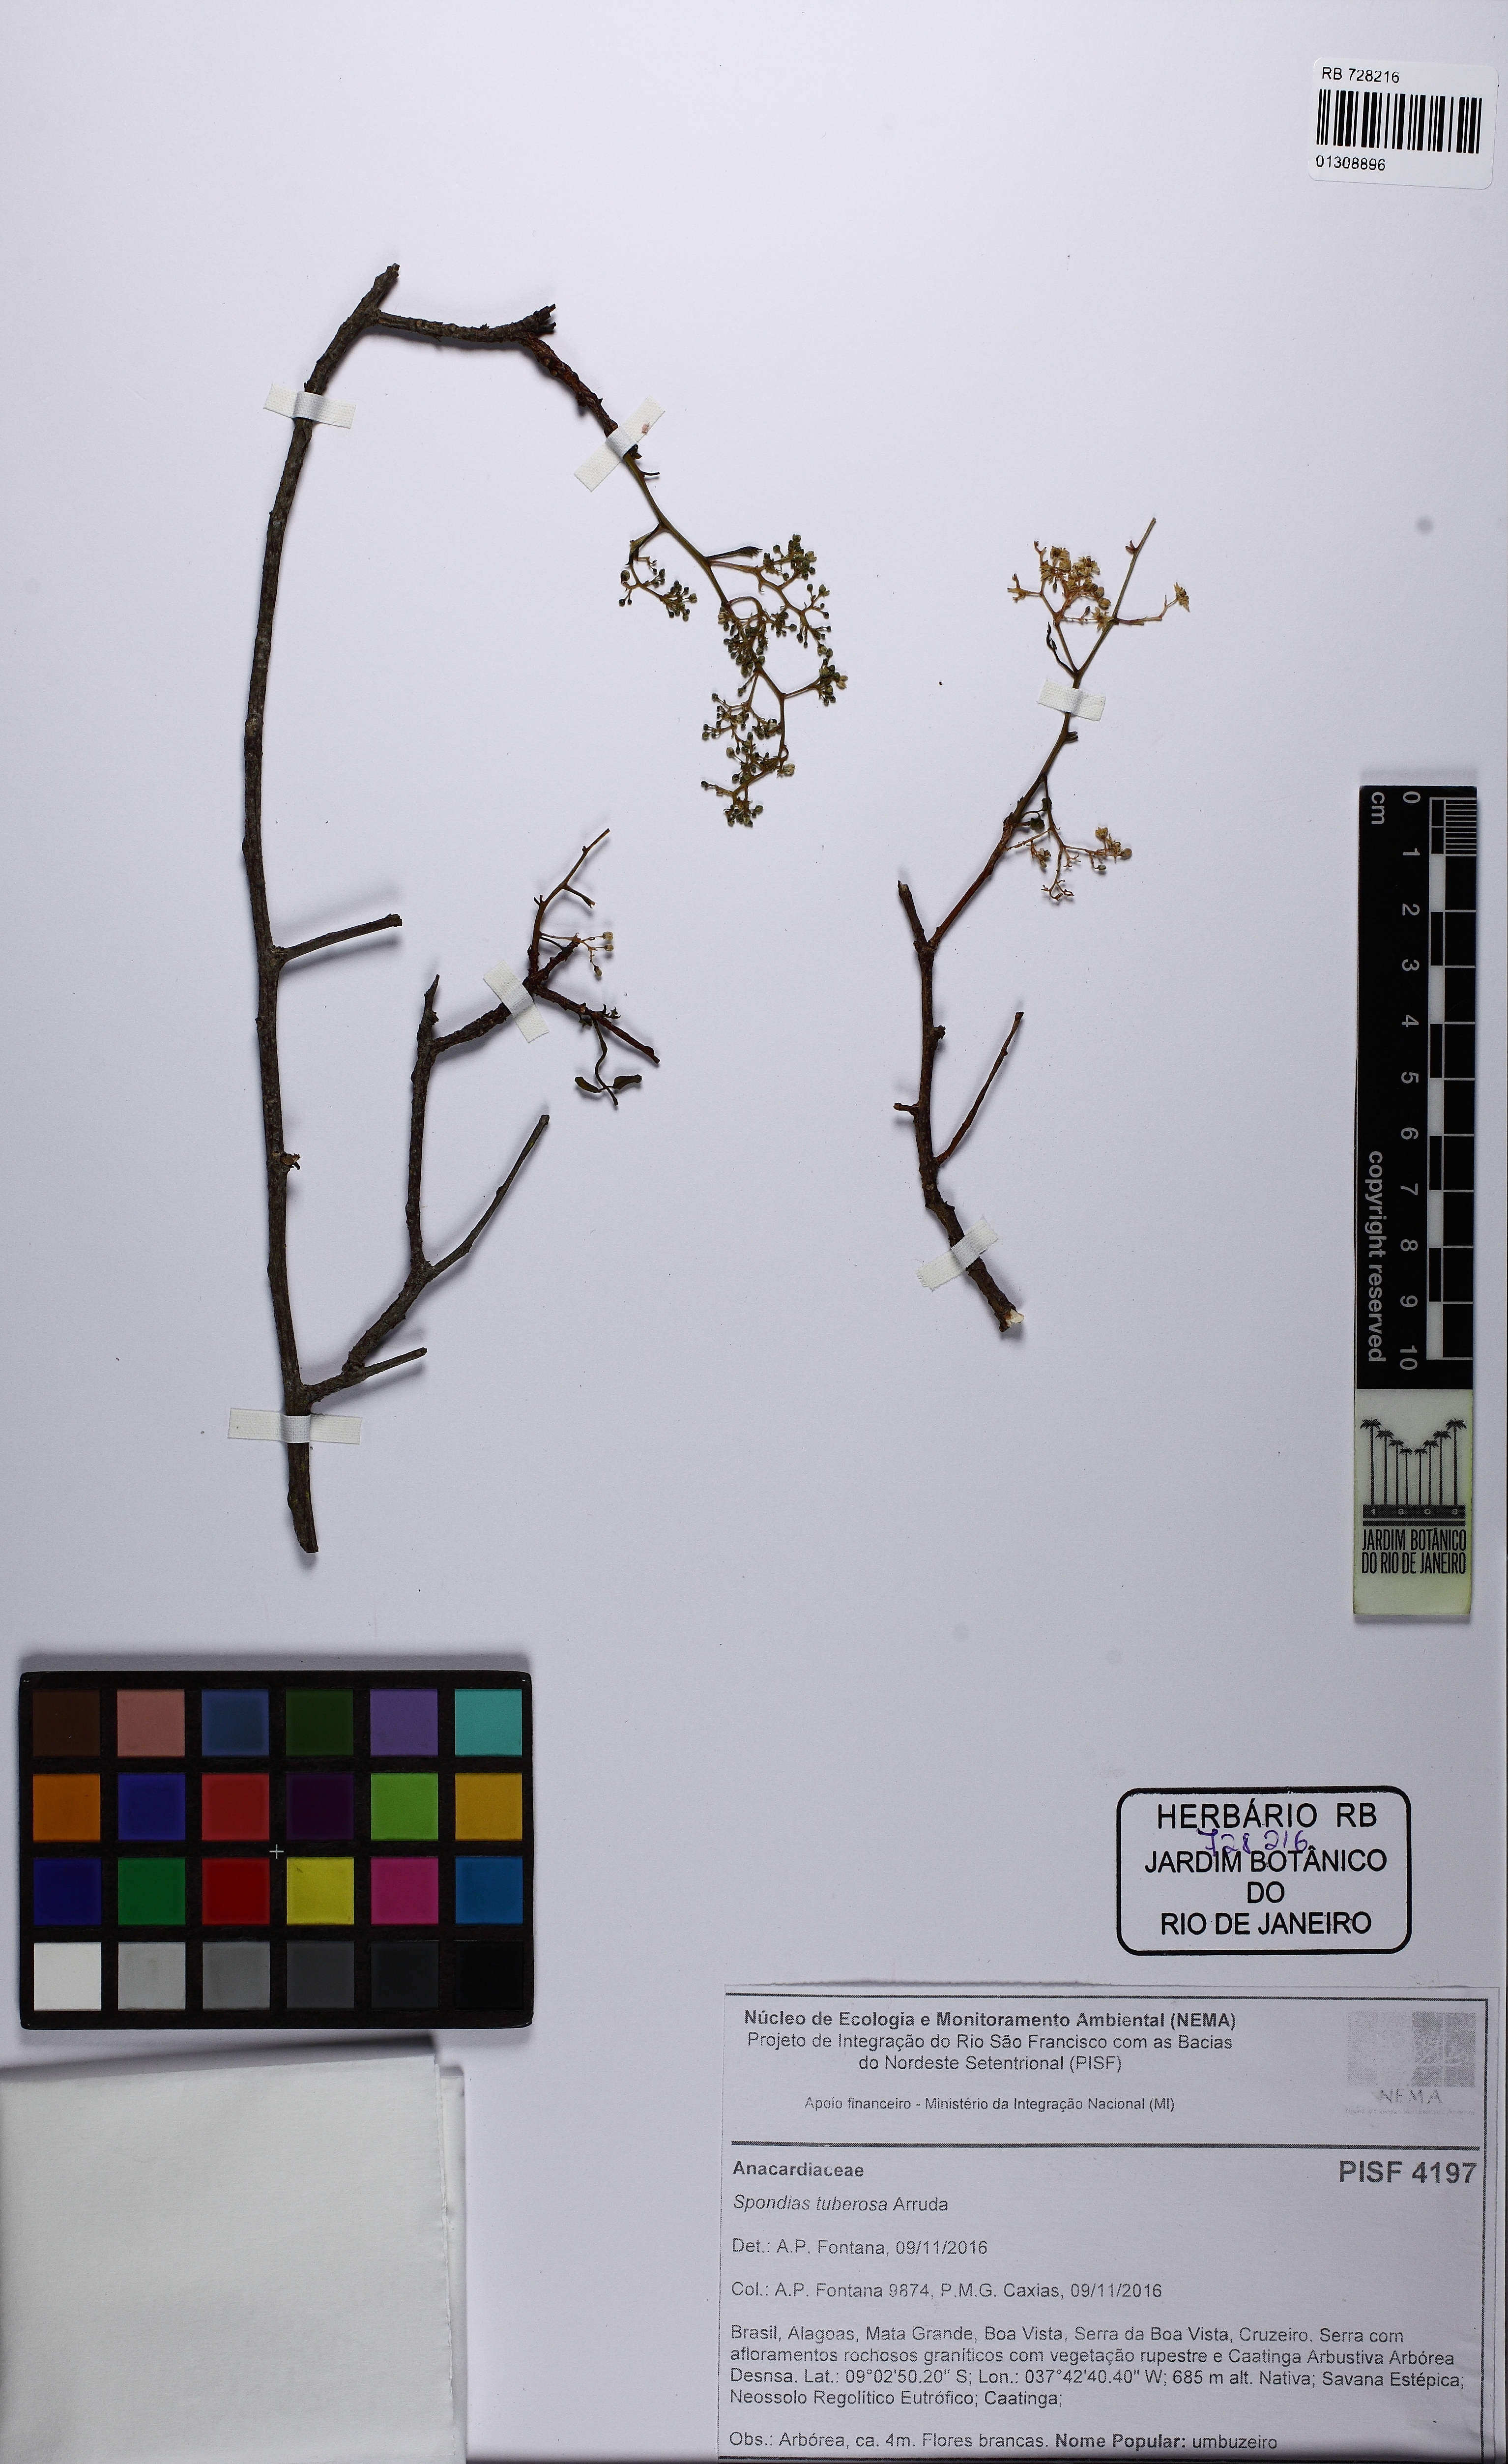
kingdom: Plantae
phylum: Tracheophyta
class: Magnoliopsida
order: Sapindales
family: Anacardiaceae
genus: Spondias
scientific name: Spondias tuberosa
